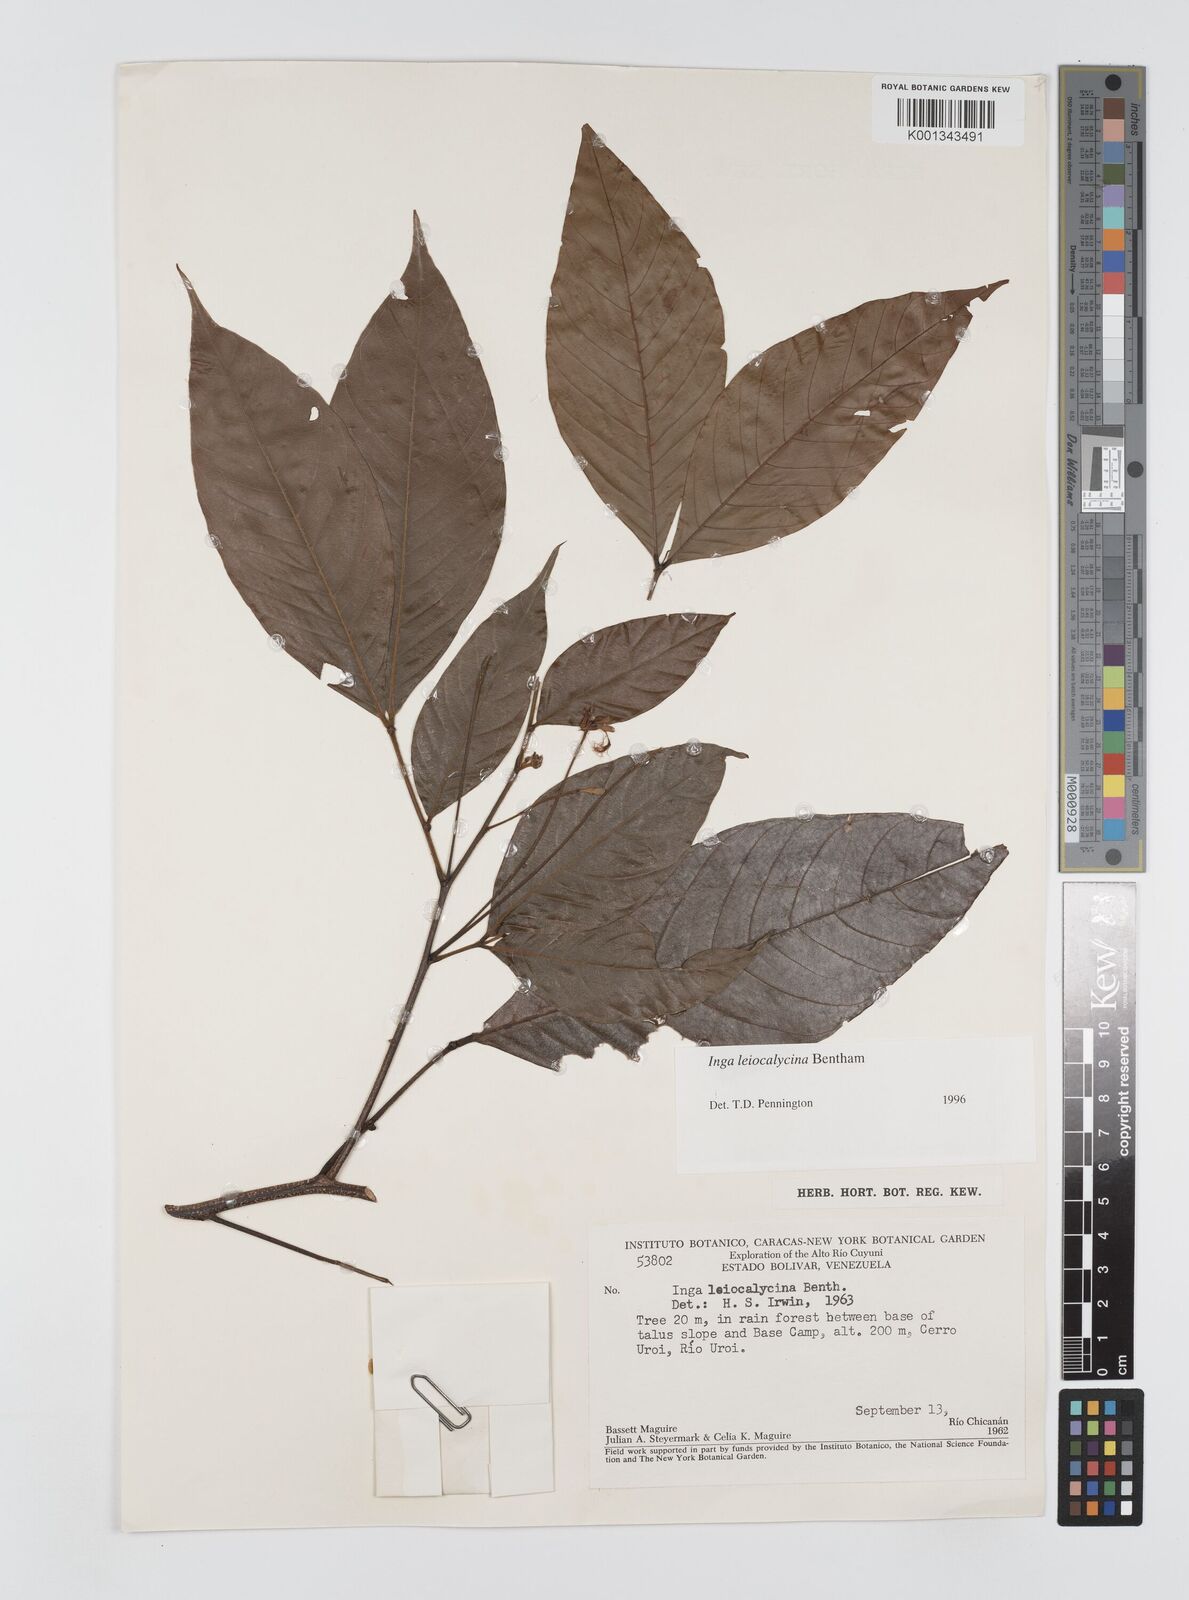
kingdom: Plantae
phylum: Tracheophyta
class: Magnoliopsida
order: Fabales
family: Fabaceae
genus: Inga
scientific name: Inga laevigata
